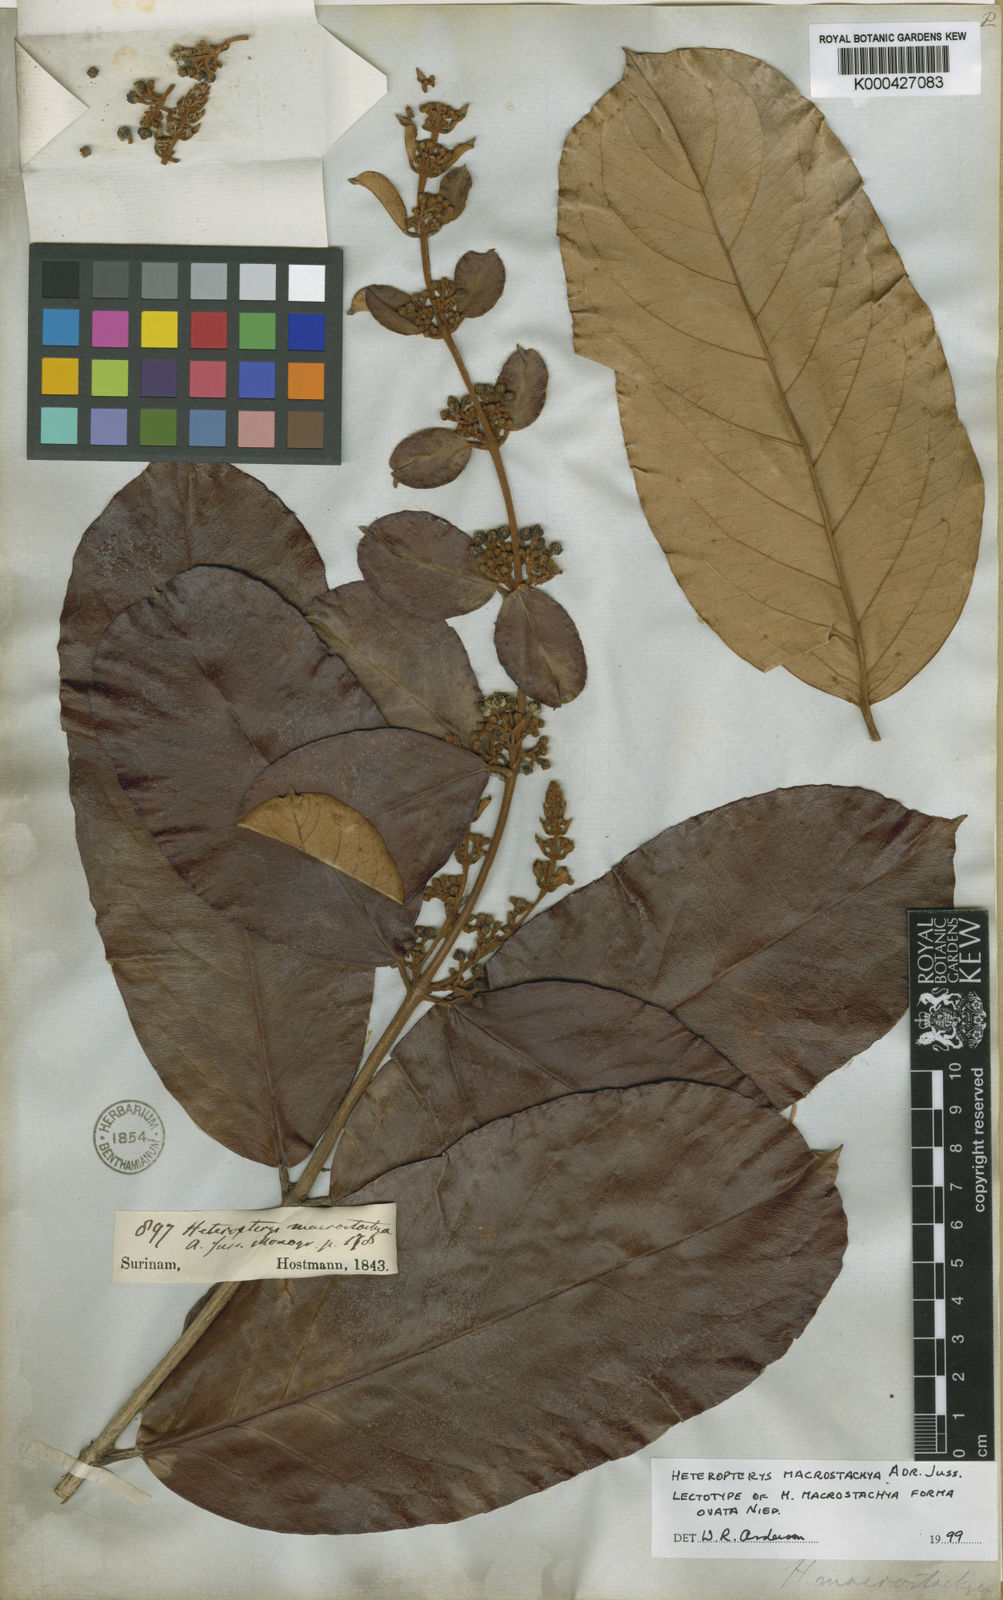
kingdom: Plantae
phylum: Tracheophyta
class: Magnoliopsida
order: Malpighiales
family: Malpighiaceae
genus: Heteropterys
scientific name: Heteropterys macrostachya
